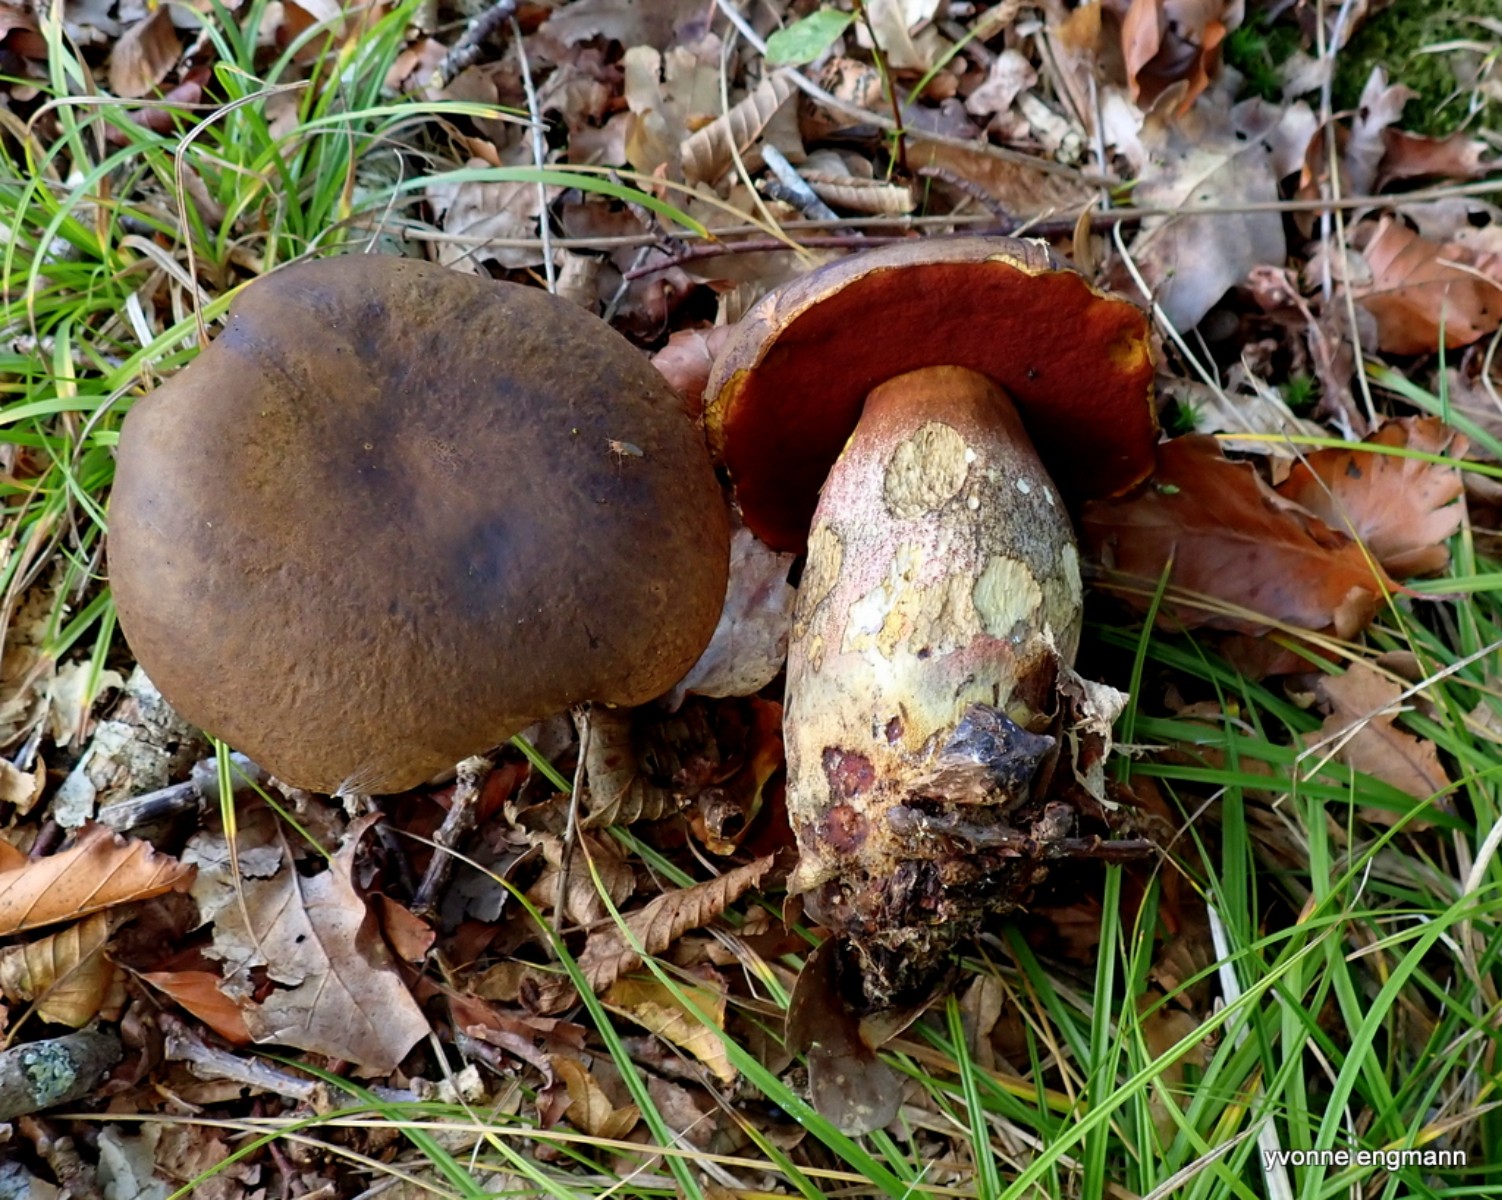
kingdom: Fungi
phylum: Basidiomycota
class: Agaricomycetes
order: Boletales
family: Boletaceae
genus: Neoboletus
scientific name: Neoboletus erythropus
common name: punktstokket indigorørhat
